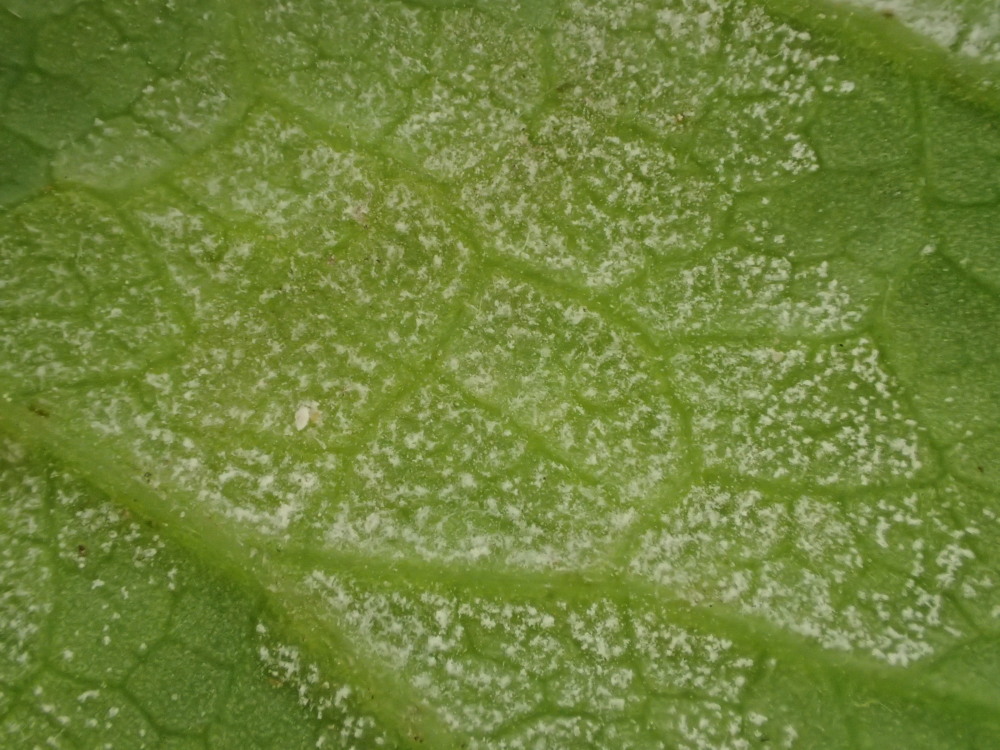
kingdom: Chromista
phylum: Oomycota
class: Peronosporea
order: Peronosporales
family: Peronosporaceae
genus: Peronospora
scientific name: Peronospora crustosa
